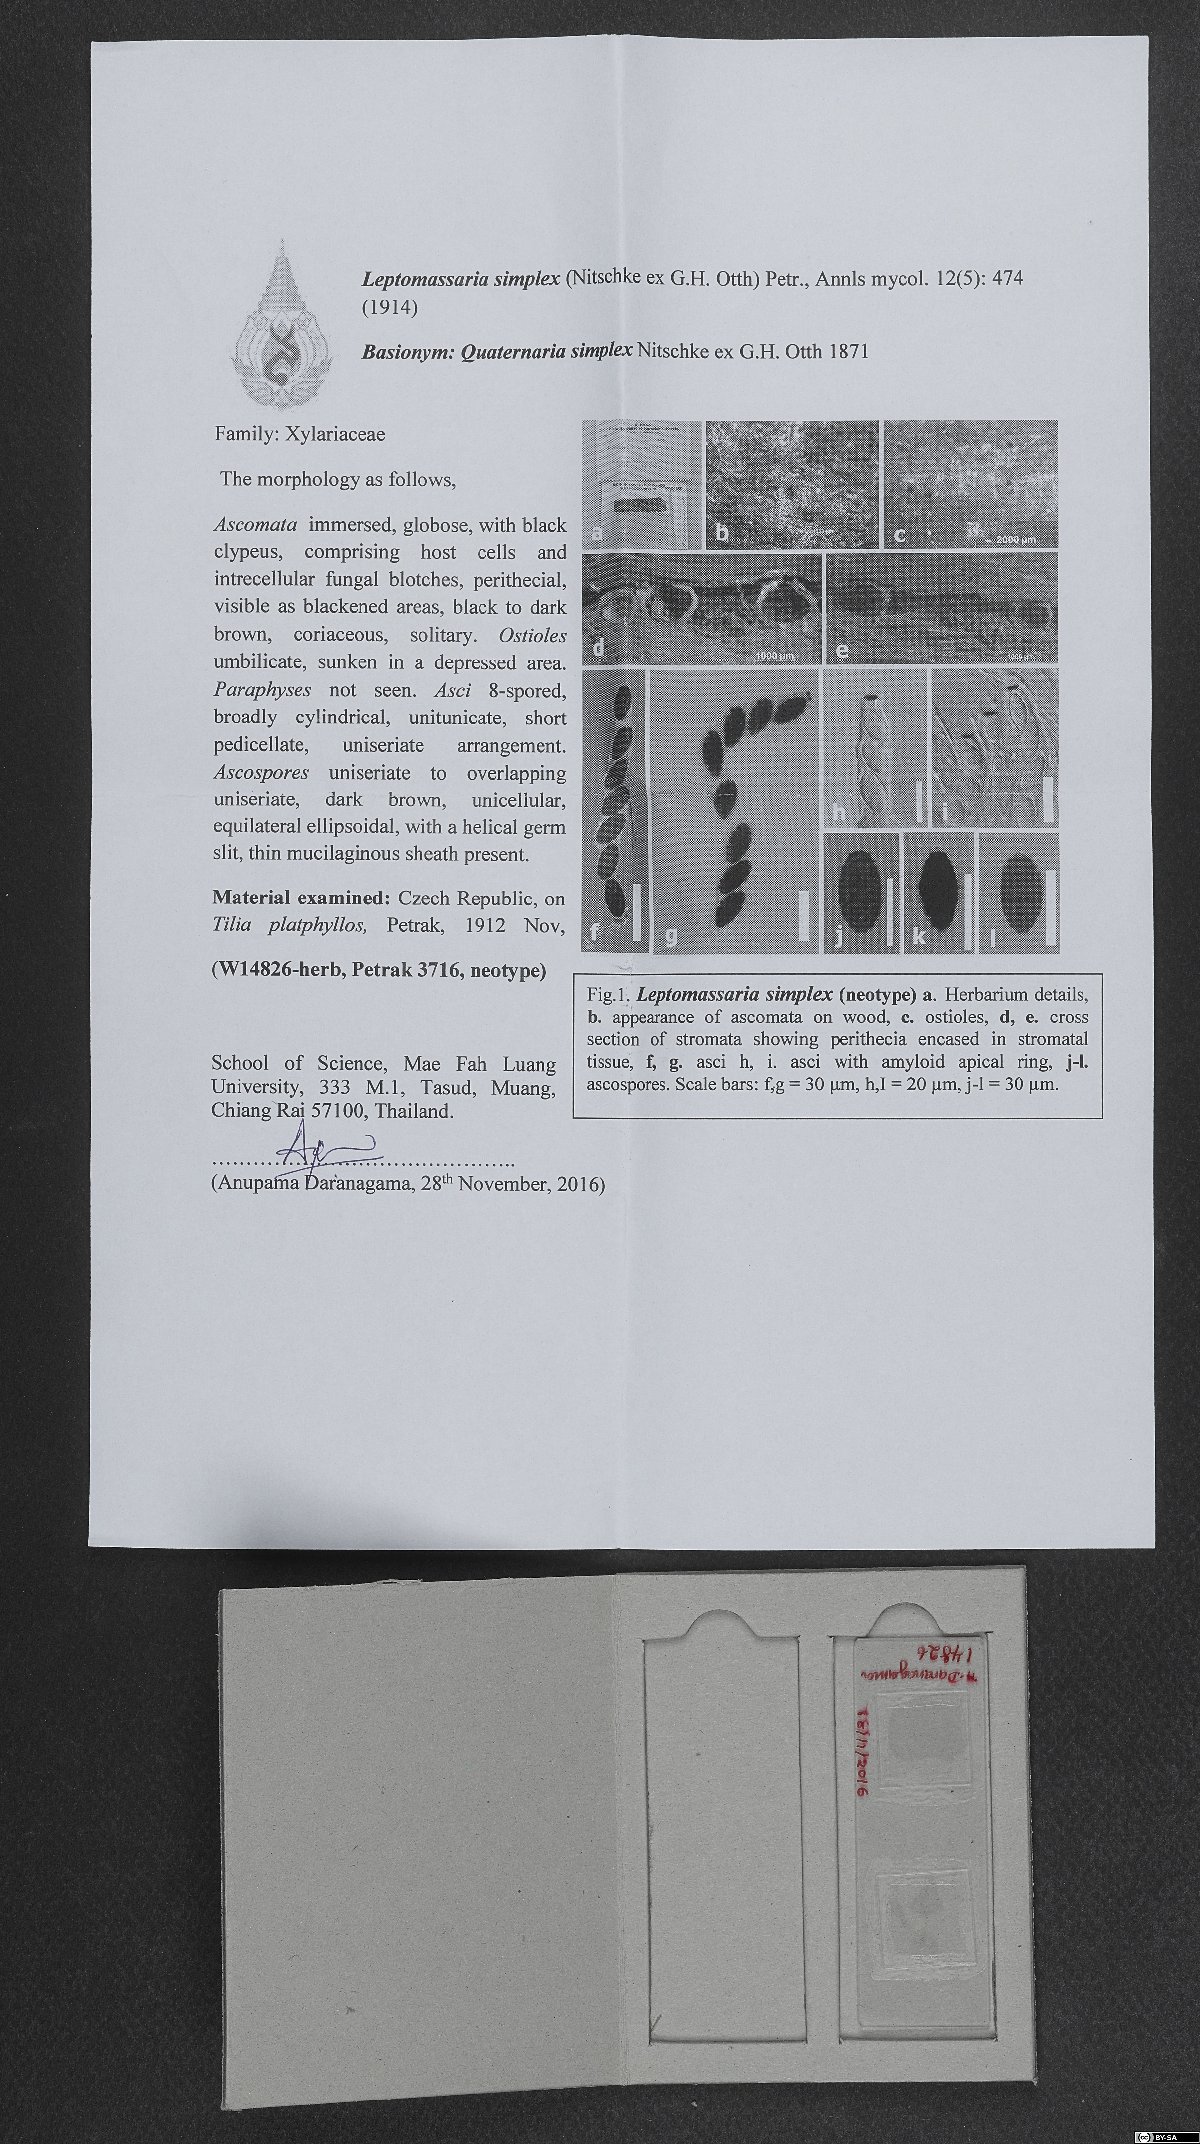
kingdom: Fungi
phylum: Ascomycota
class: Sordariomycetes
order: Xylariales
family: Xylariaceae
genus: Leptomassaria
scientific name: Leptomassaria simplex
